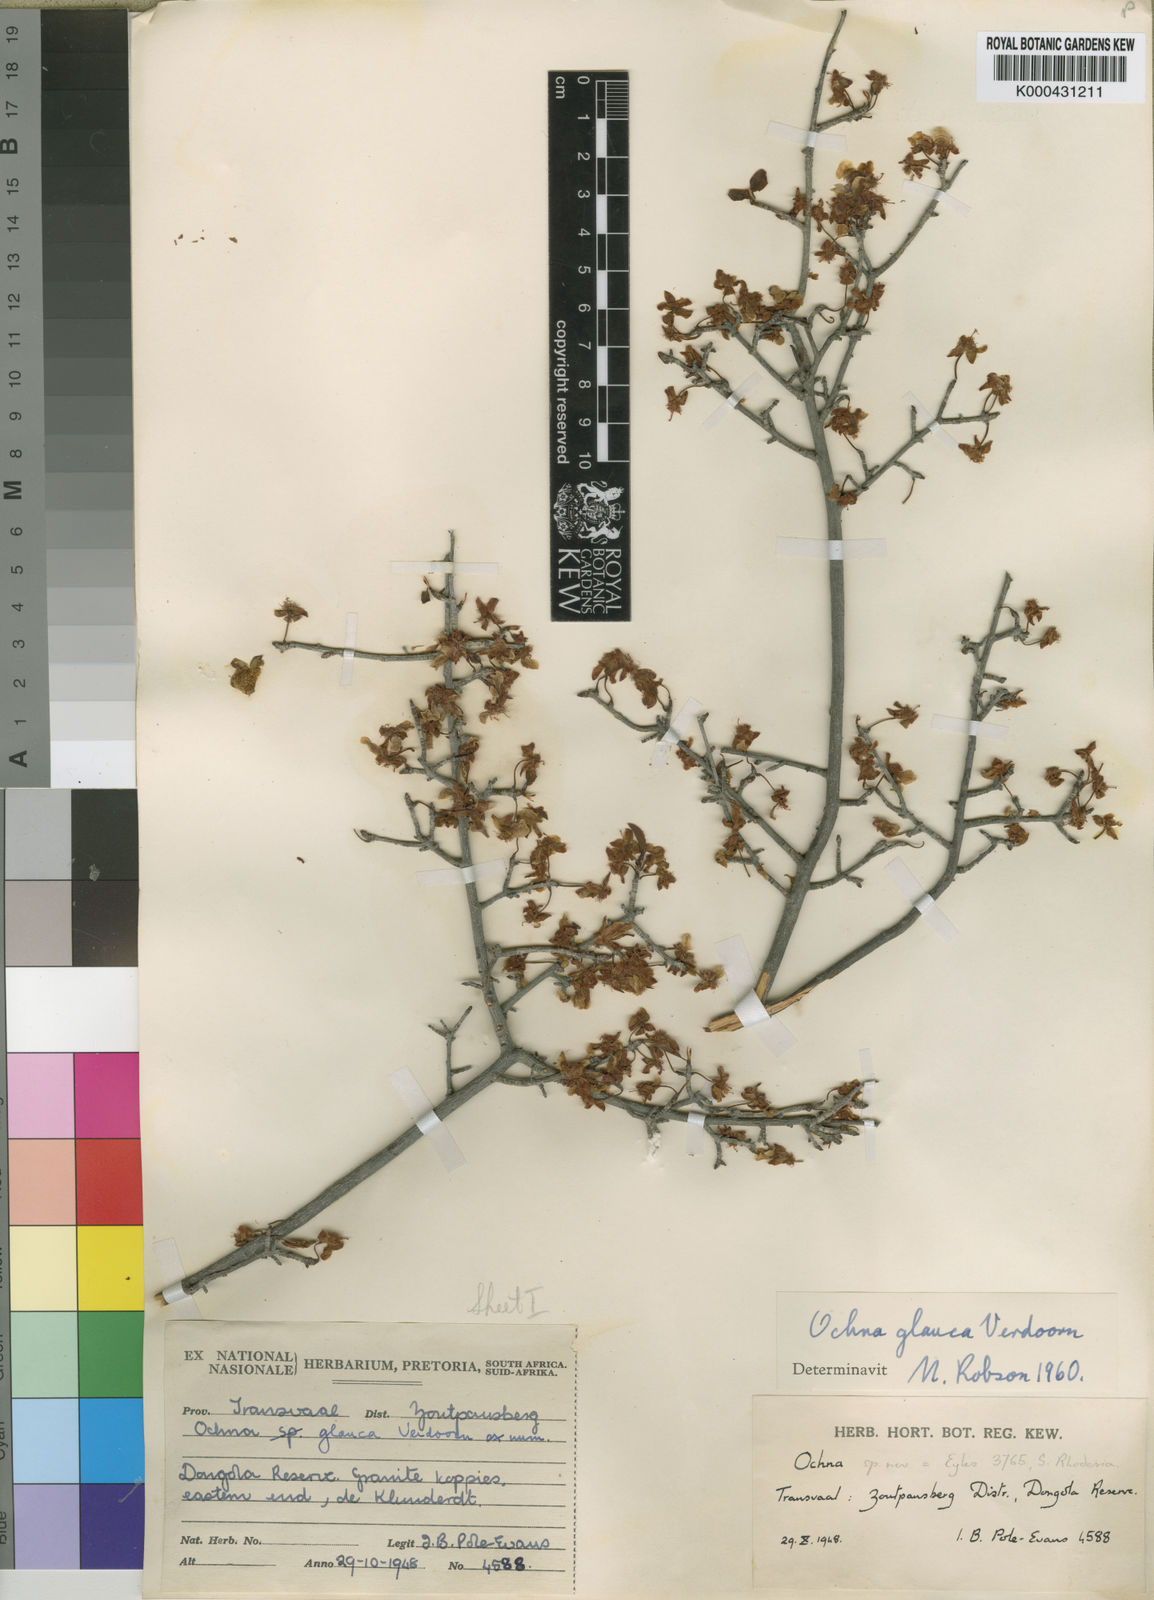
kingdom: Plantae
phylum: Tracheophyta
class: Magnoliopsida
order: Malpighiales
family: Ochnaceae
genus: Ochna
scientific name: Ochna glauca
